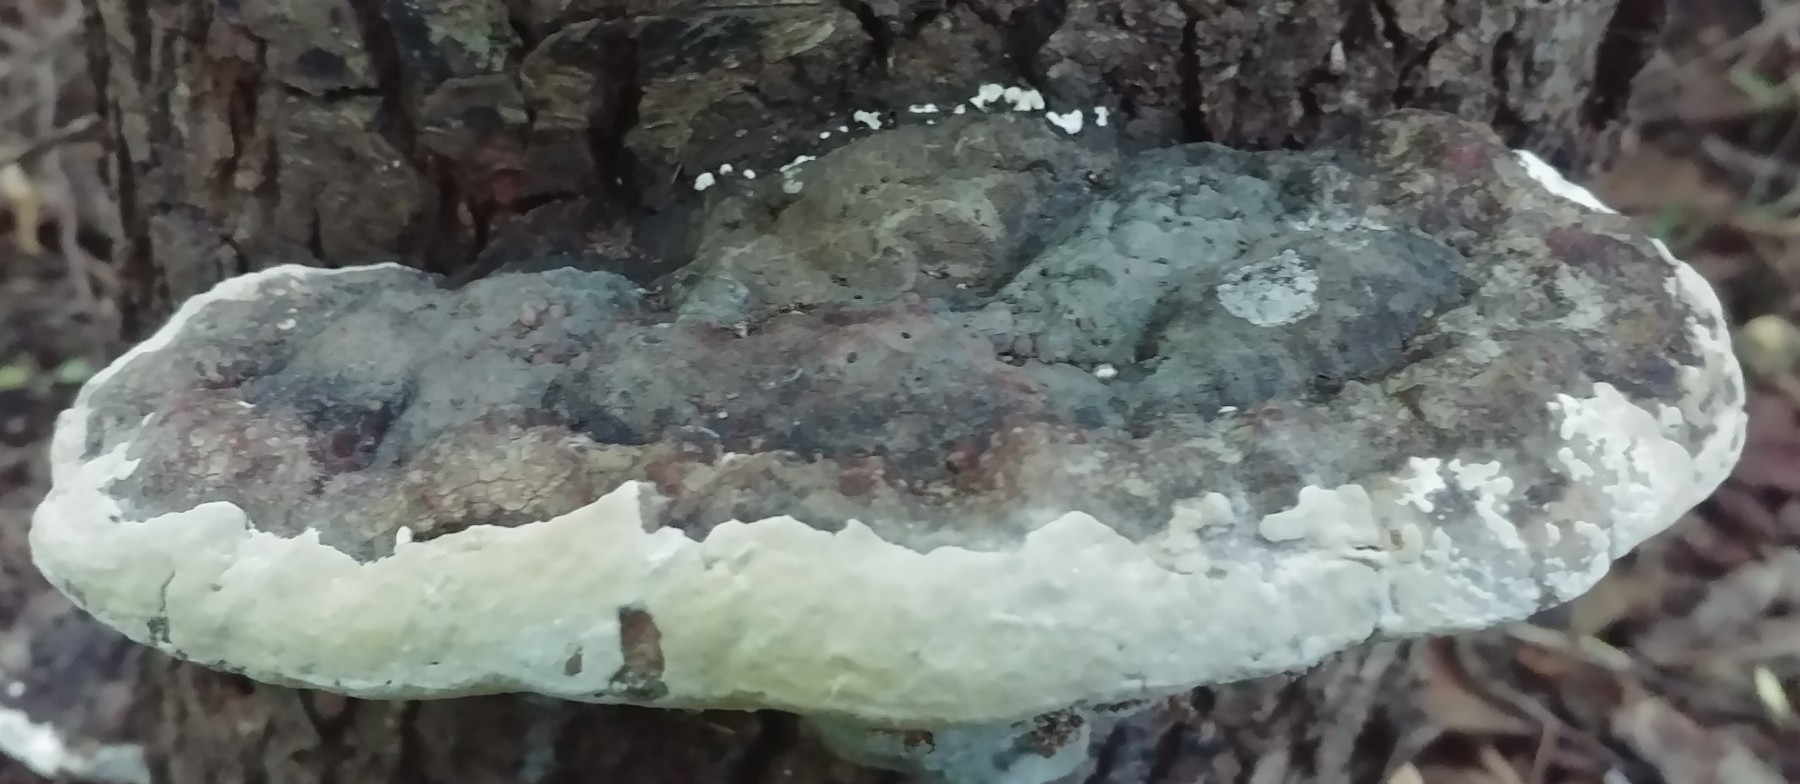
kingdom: Fungi
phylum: Basidiomycota
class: Agaricomycetes
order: Polyporales
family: Fomitopsidaceae
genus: Fomitopsis
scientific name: Fomitopsis pinicola
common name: randbæltet hovporesvamp
